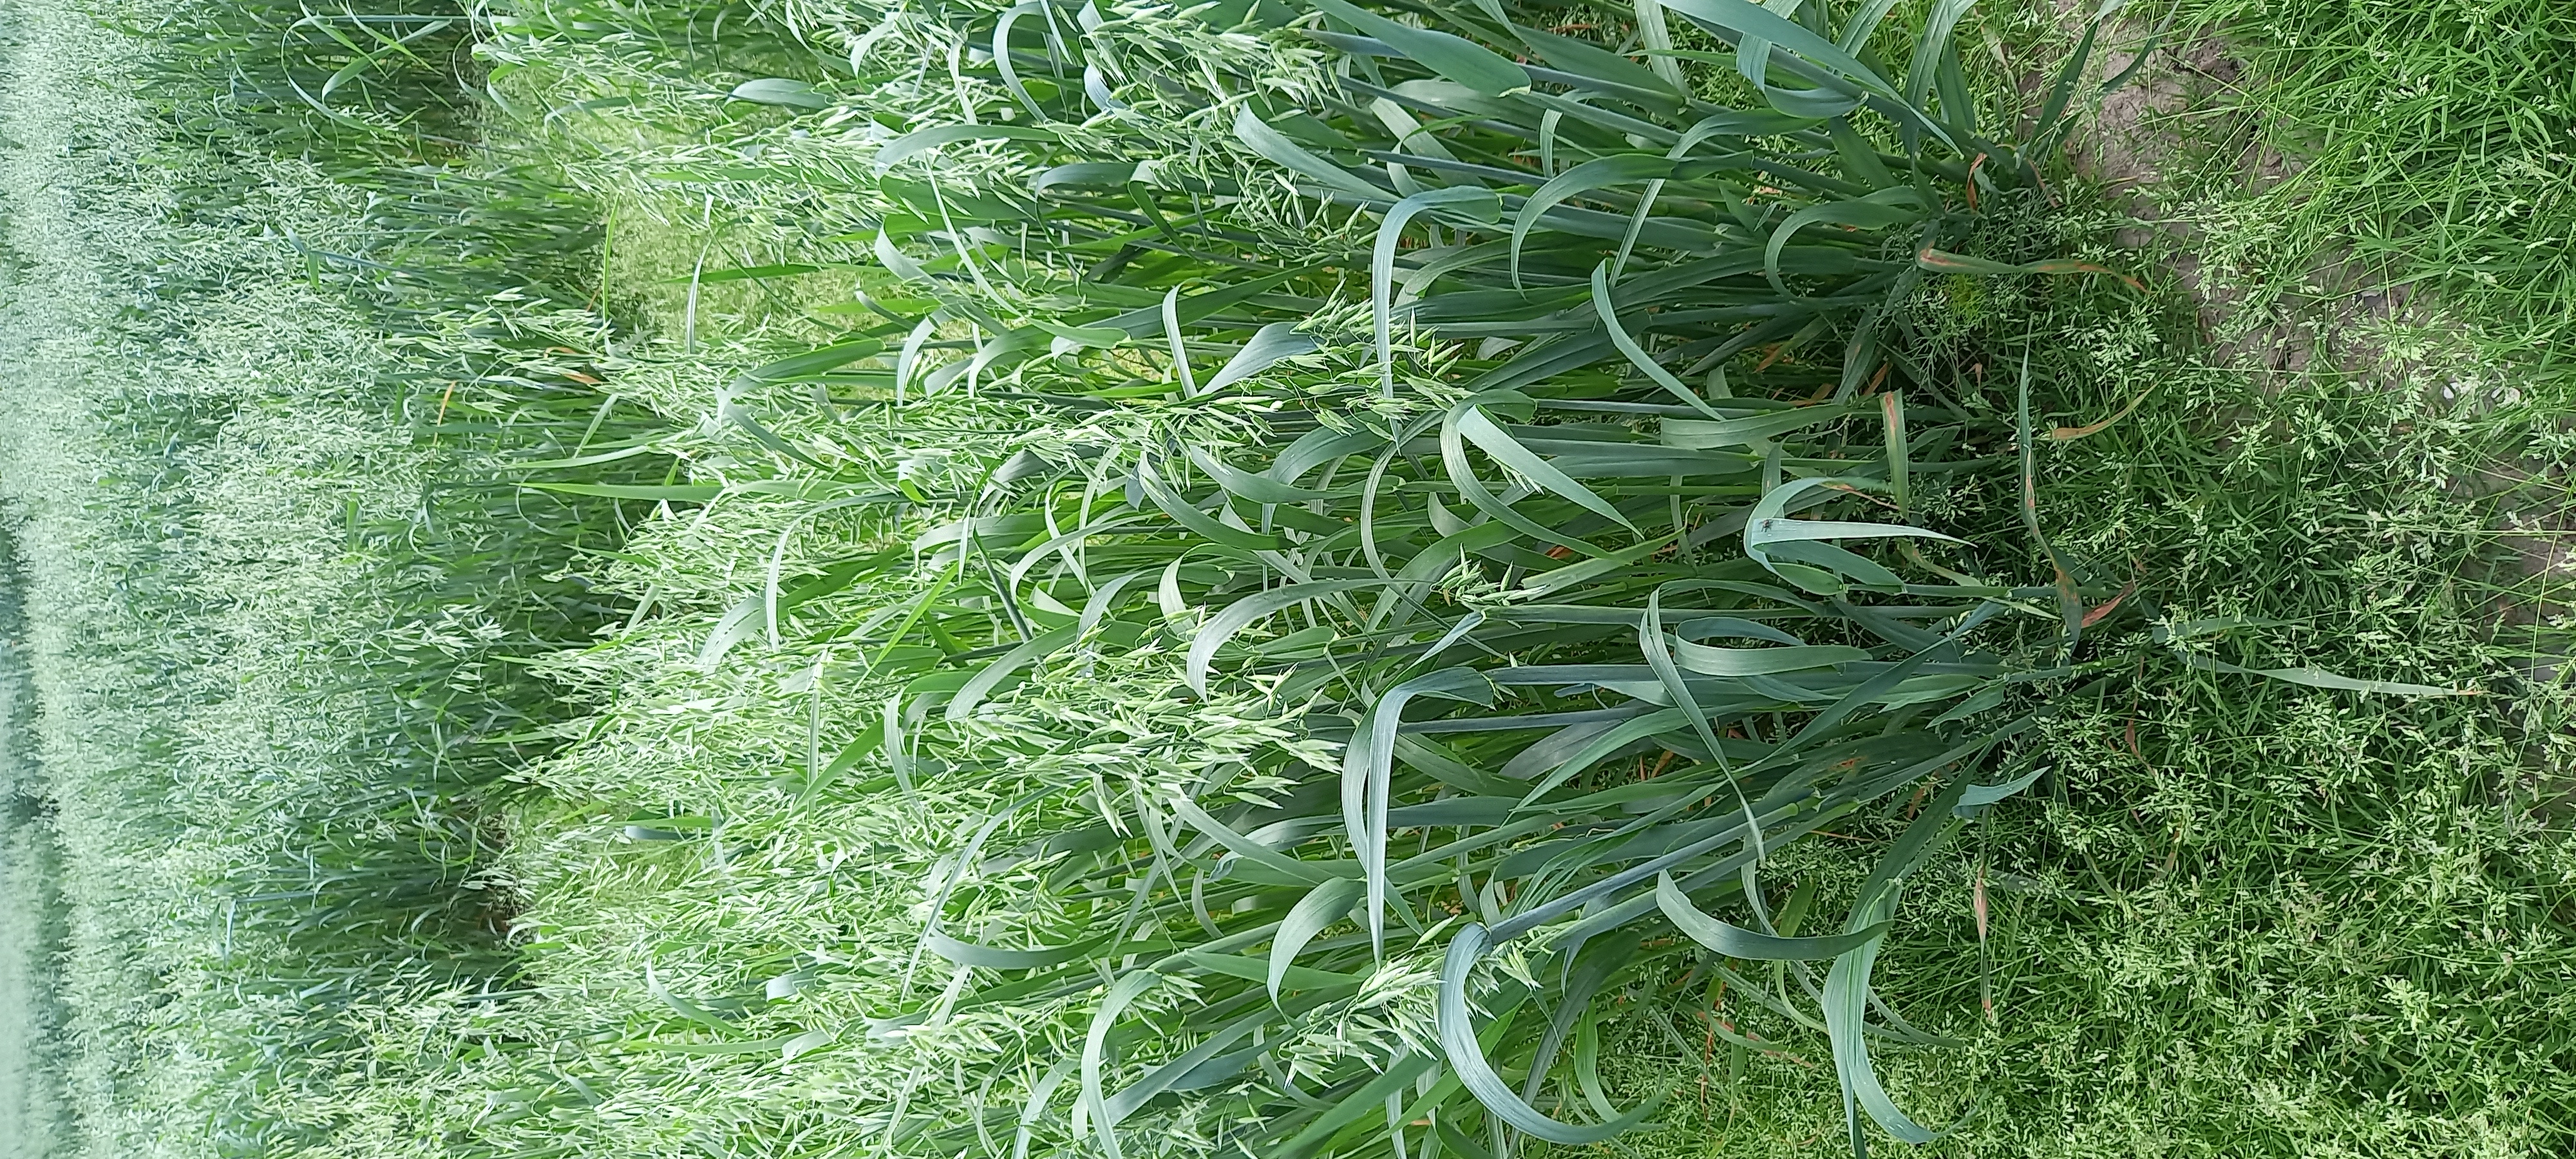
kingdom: Plantae
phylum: Tracheophyta
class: Liliopsida
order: Poales
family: Poaceae
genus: Avena
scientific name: Avena sativa
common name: Oat
